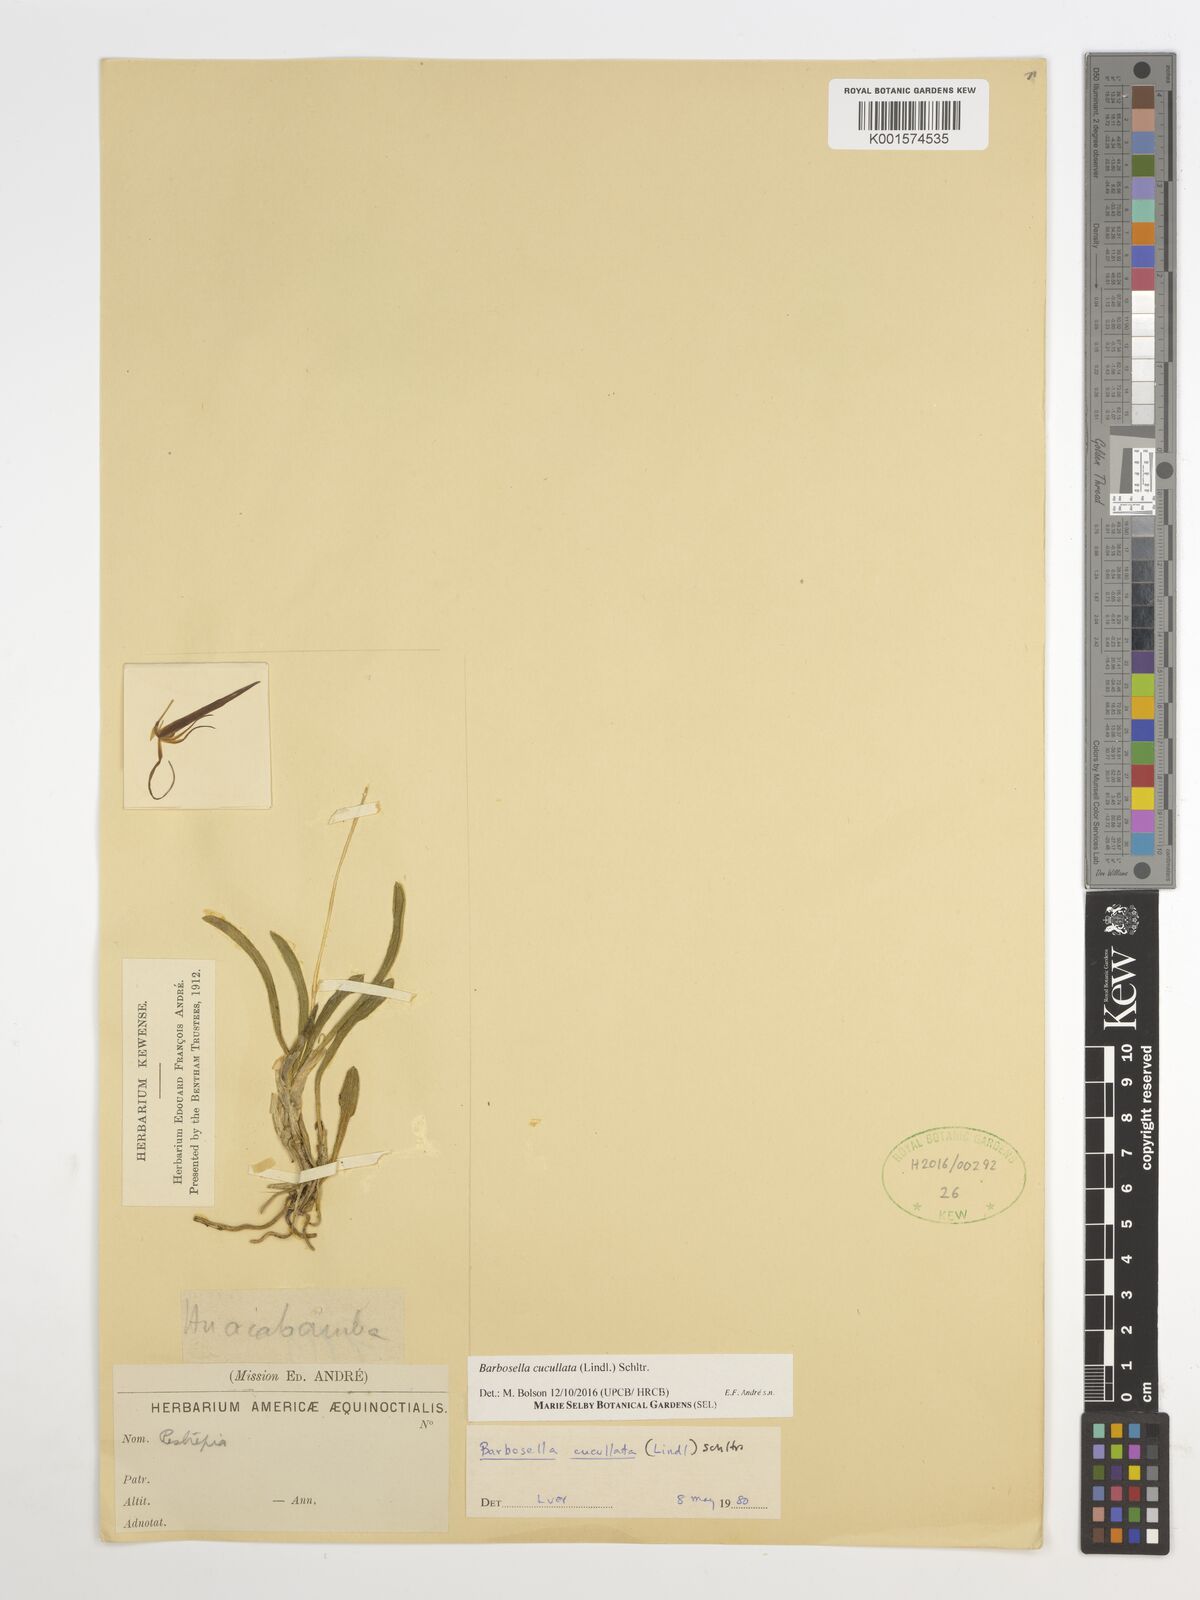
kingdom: Plantae
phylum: Tracheophyta
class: Liliopsida
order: Asparagales
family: Orchidaceae
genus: Barbosella
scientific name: Barbosella cucullata
